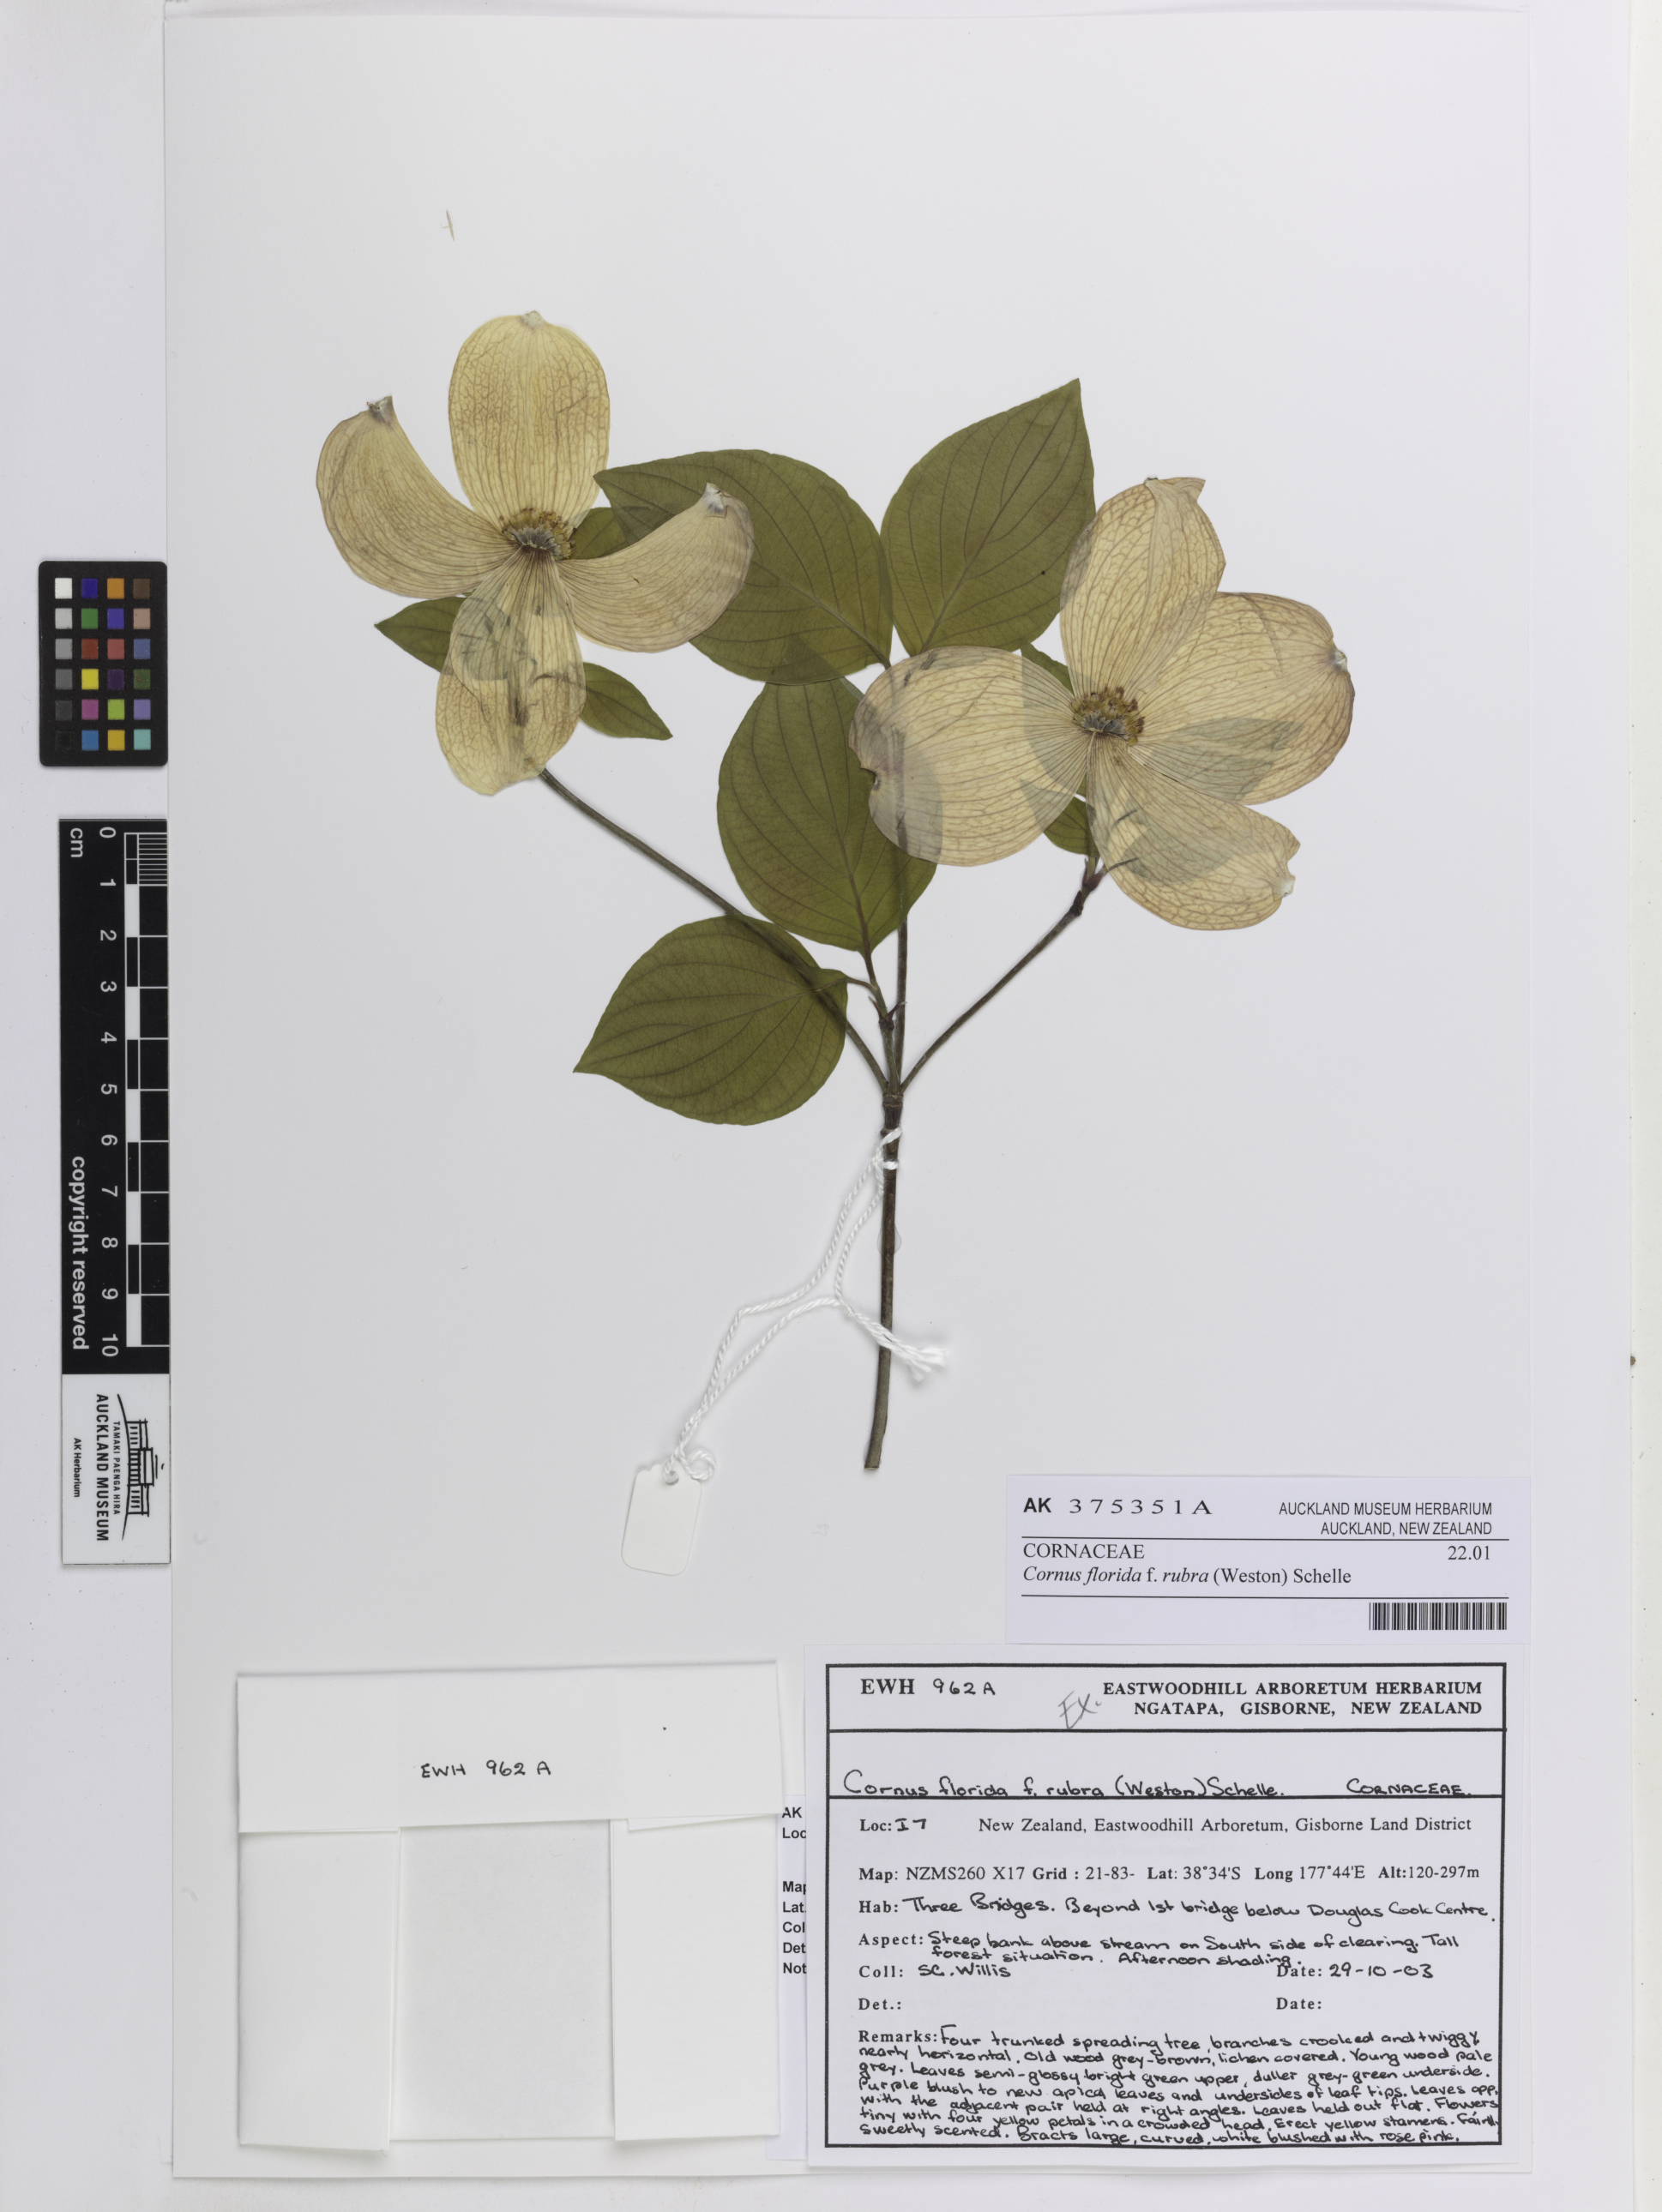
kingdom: Plantae
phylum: Tracheophyta
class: Magnoliopsida
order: Cornales
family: Cornaceae
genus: Cornus
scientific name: Cornus florida
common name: Flowering dogwood
